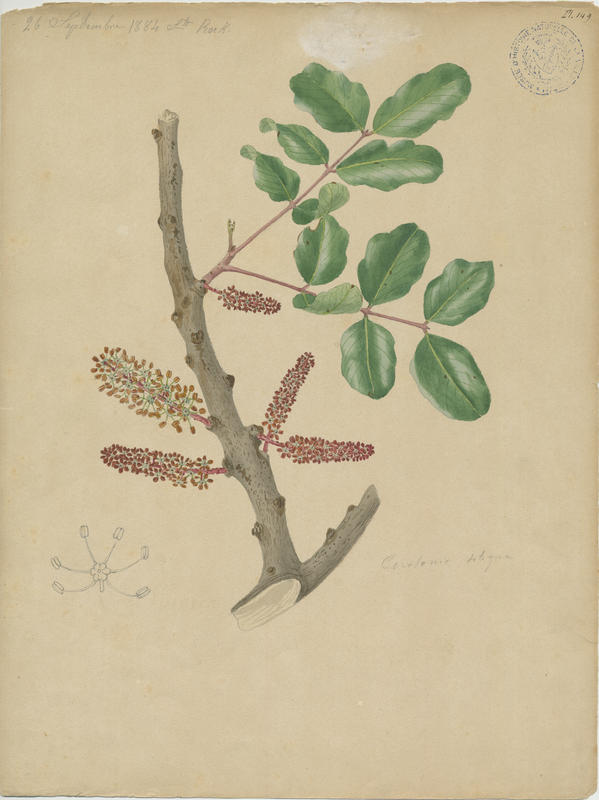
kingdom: Plantae
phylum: Tracheophyta
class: Magnoliopsida
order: Fabales
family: Fabaceae
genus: Ceratonia
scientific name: Ceratonia siliqua
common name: Carob
